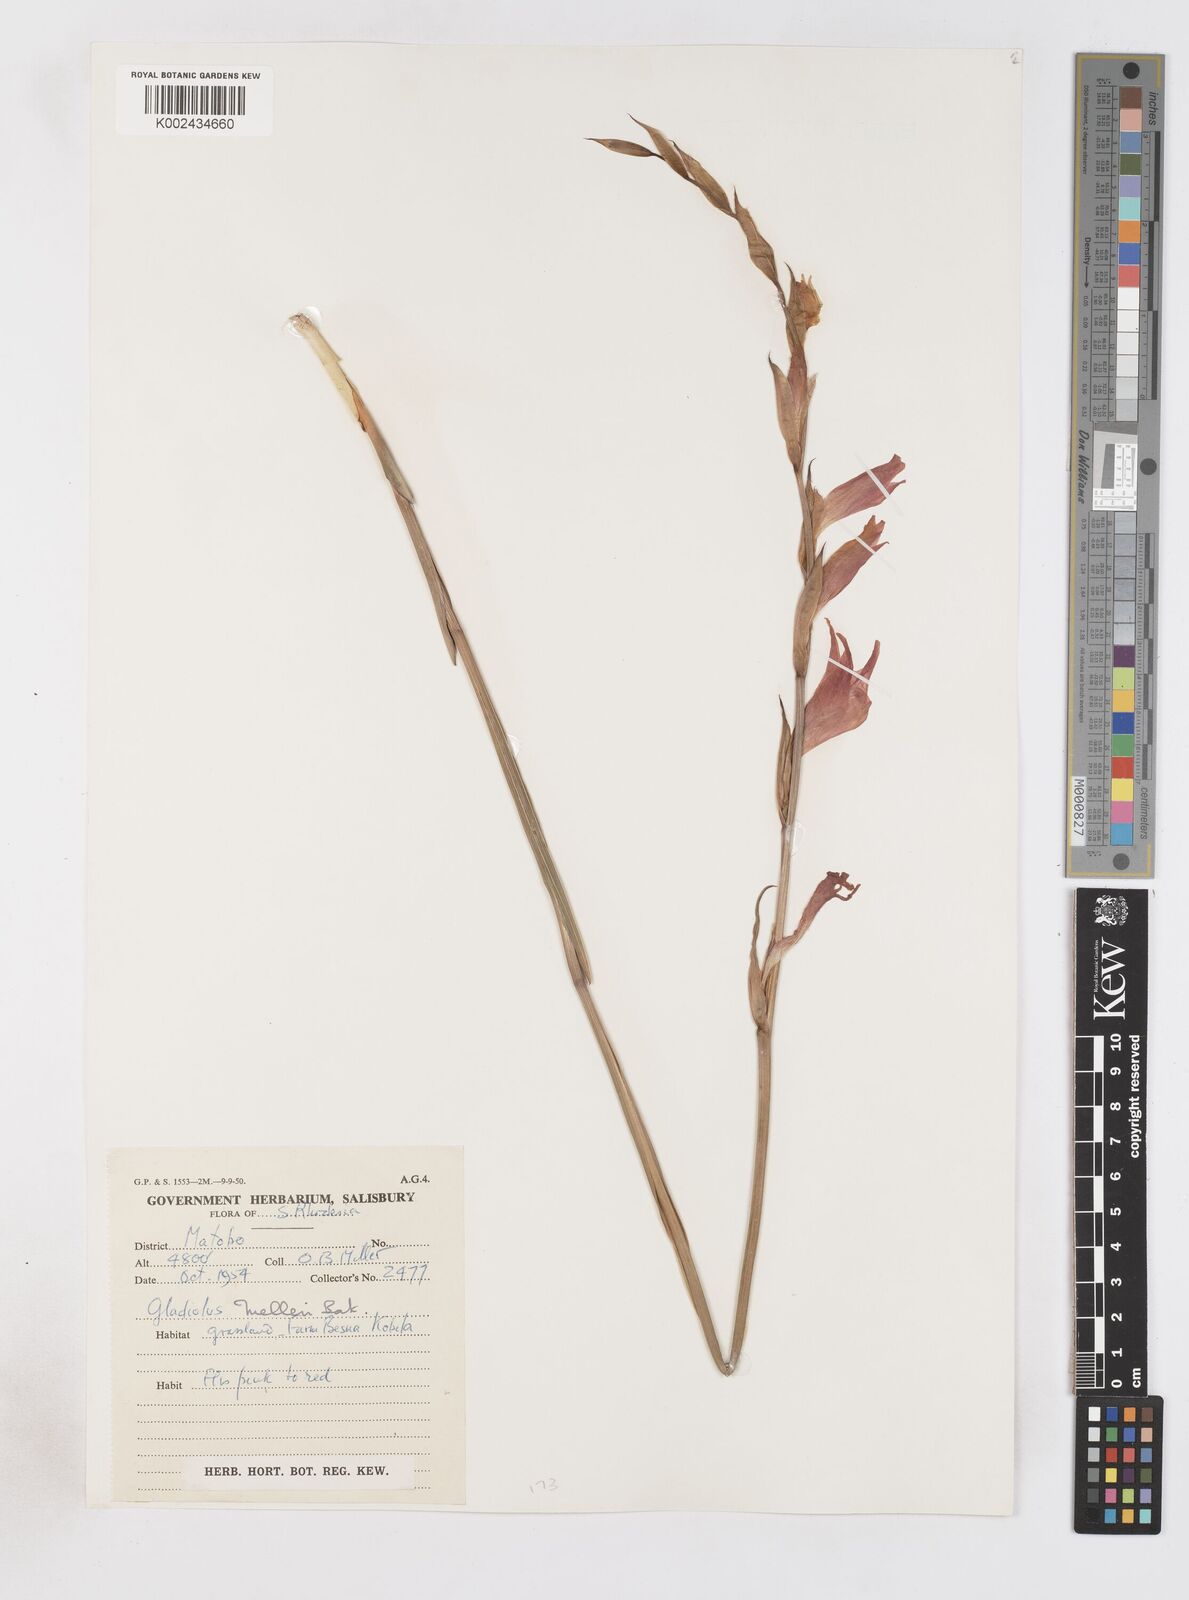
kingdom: Plantae
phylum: Tracheophyta
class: Liliopsida
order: Asparagales
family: Iridaceae
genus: Gladiolus
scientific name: Gladiolus melleri
